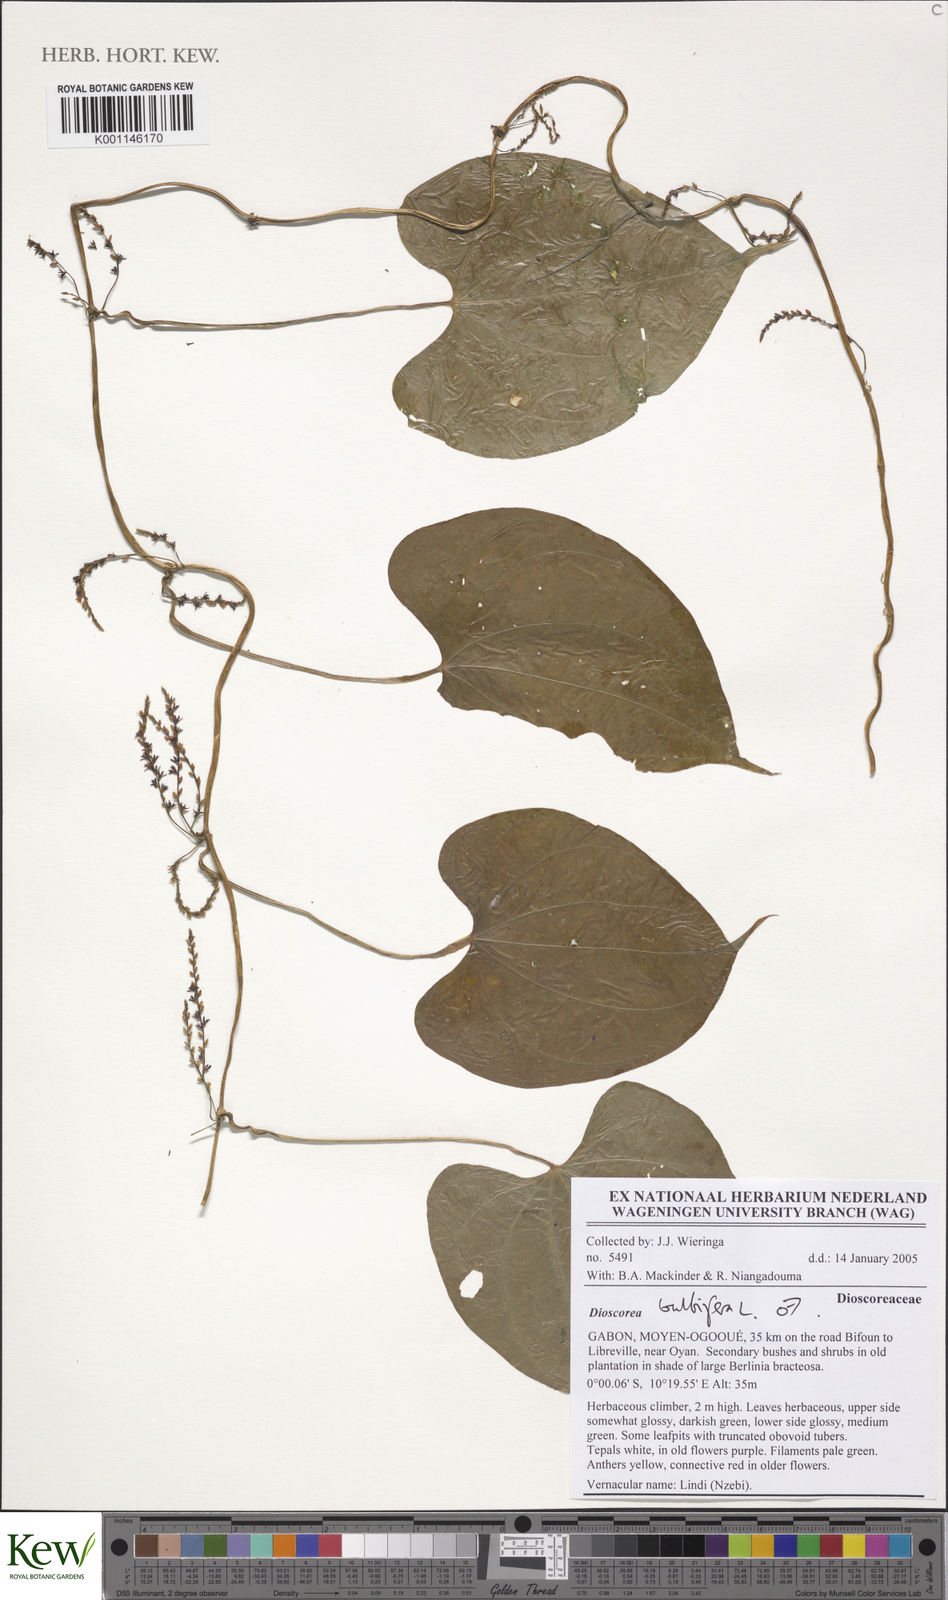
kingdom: Plantae
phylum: Tracheophyta
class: Liliopsida
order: Dioscoreales
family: Dioscoreaceae
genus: Dioscorea
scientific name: Dioscorea bulbifera
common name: Air yam
